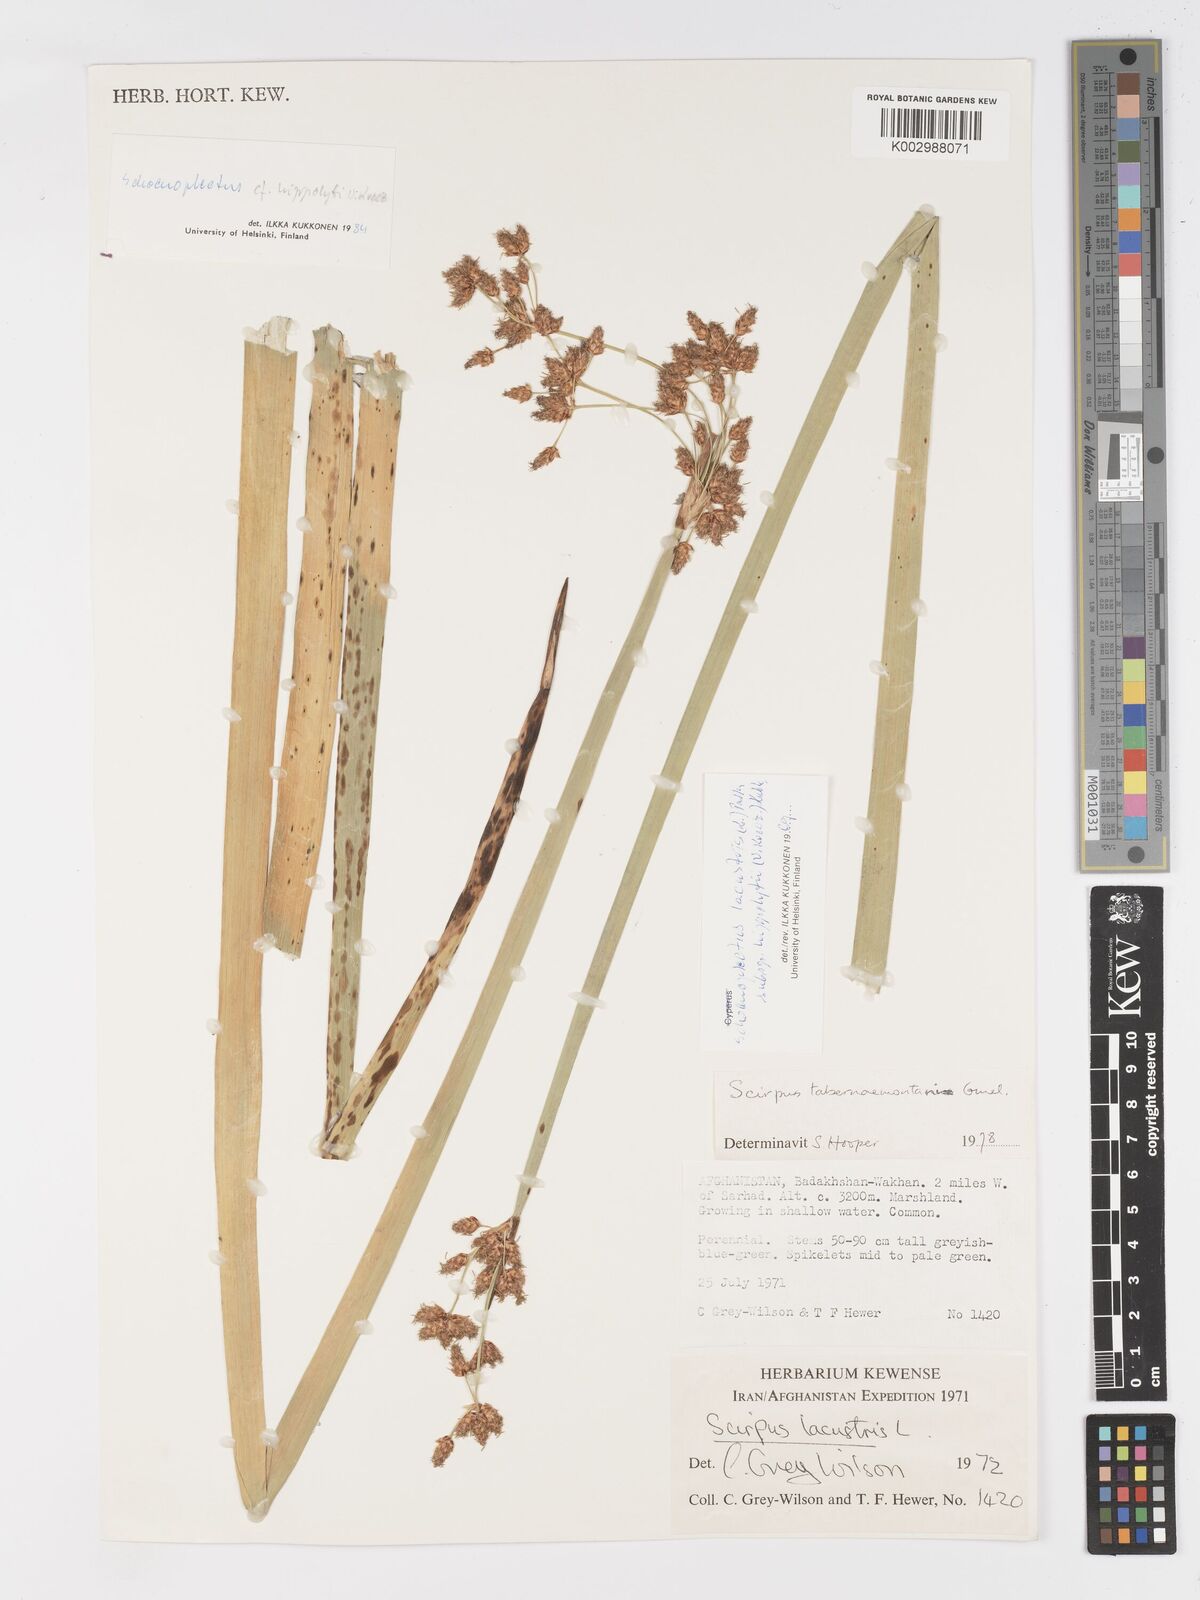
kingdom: Plantae
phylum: Tracheophyta
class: Liliopsida
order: Poales
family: Cyperaceae
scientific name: Cyperaceae
